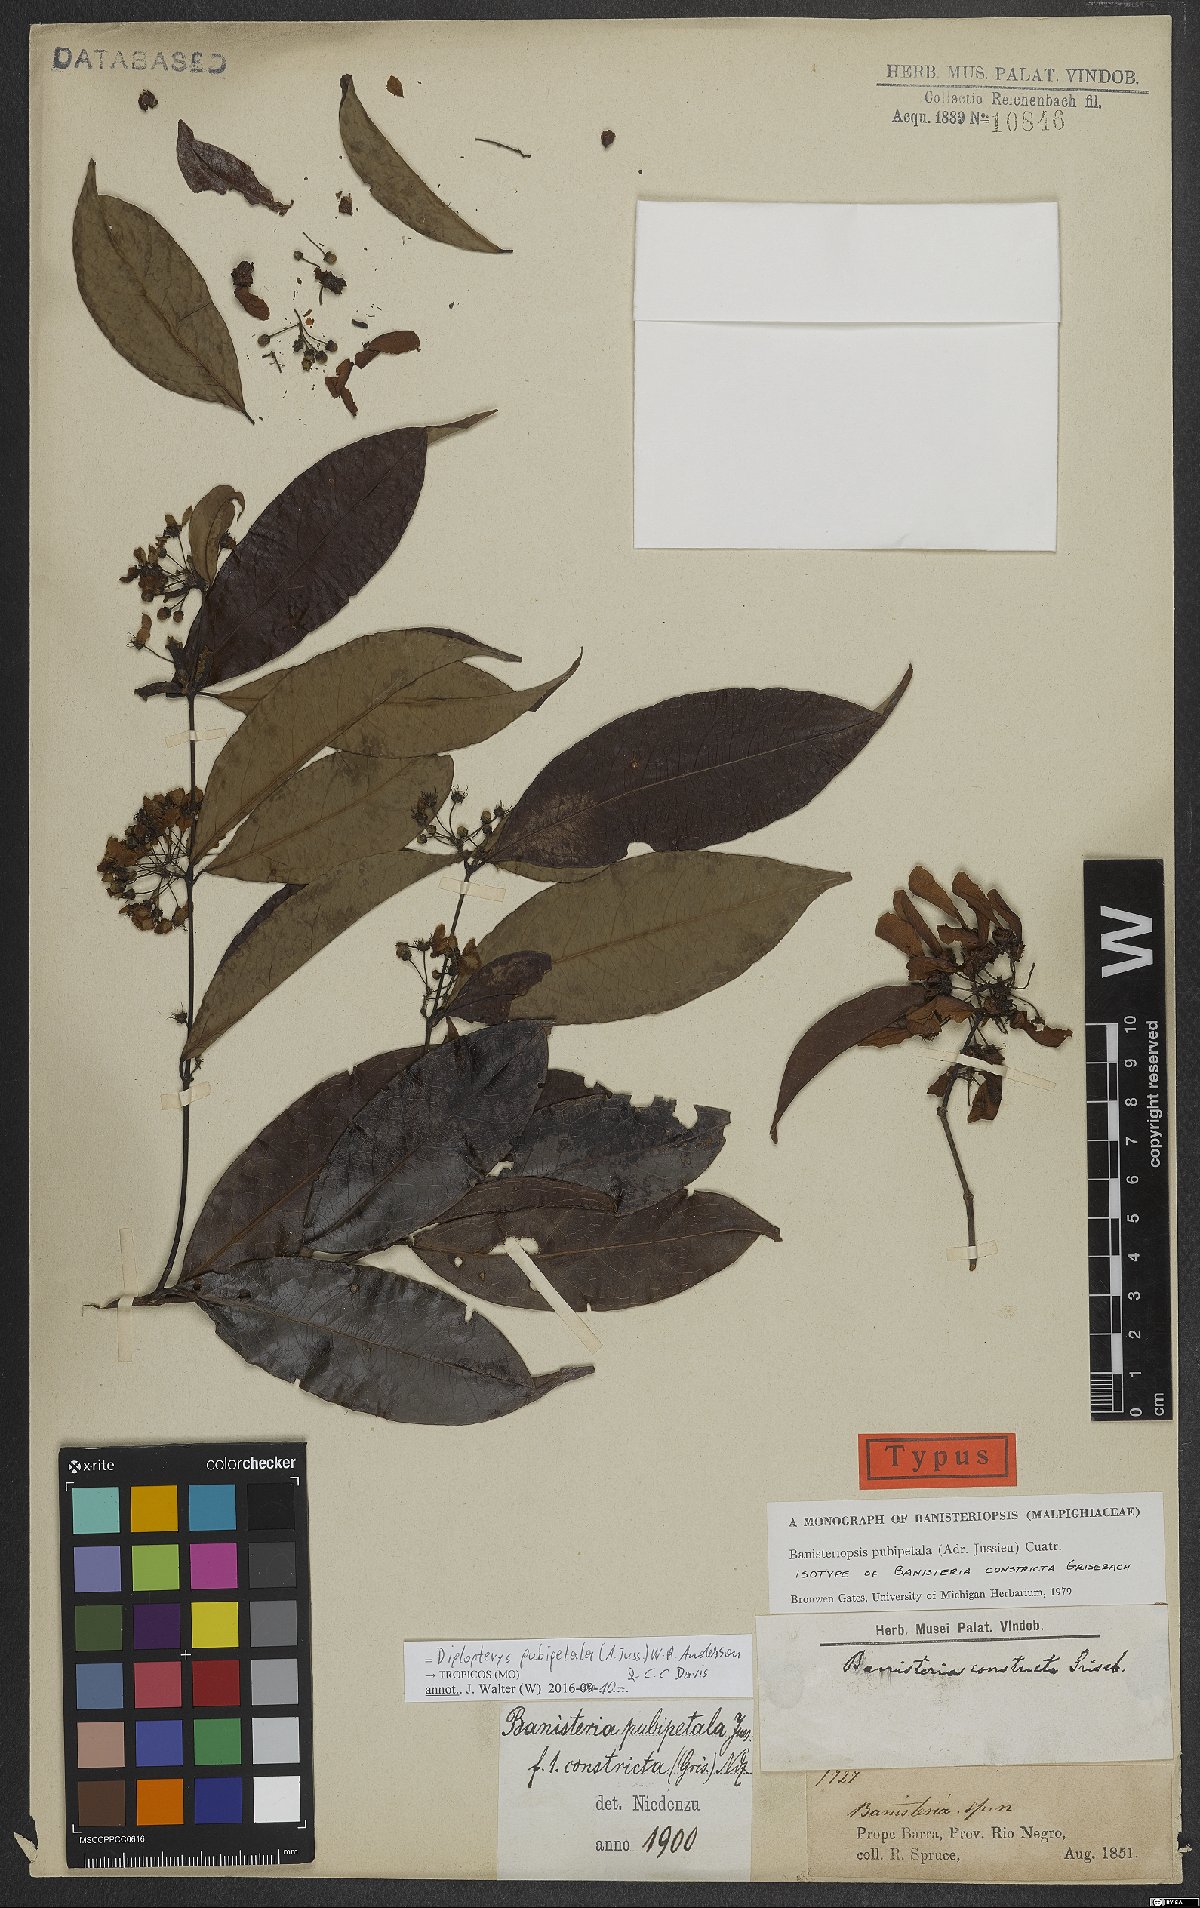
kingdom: Plantae
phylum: Tracheophyta
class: Magnoliopsida
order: Malpighiales
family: Malpighiaceae
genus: Diplopterys
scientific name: Diplopterys pubipetala
